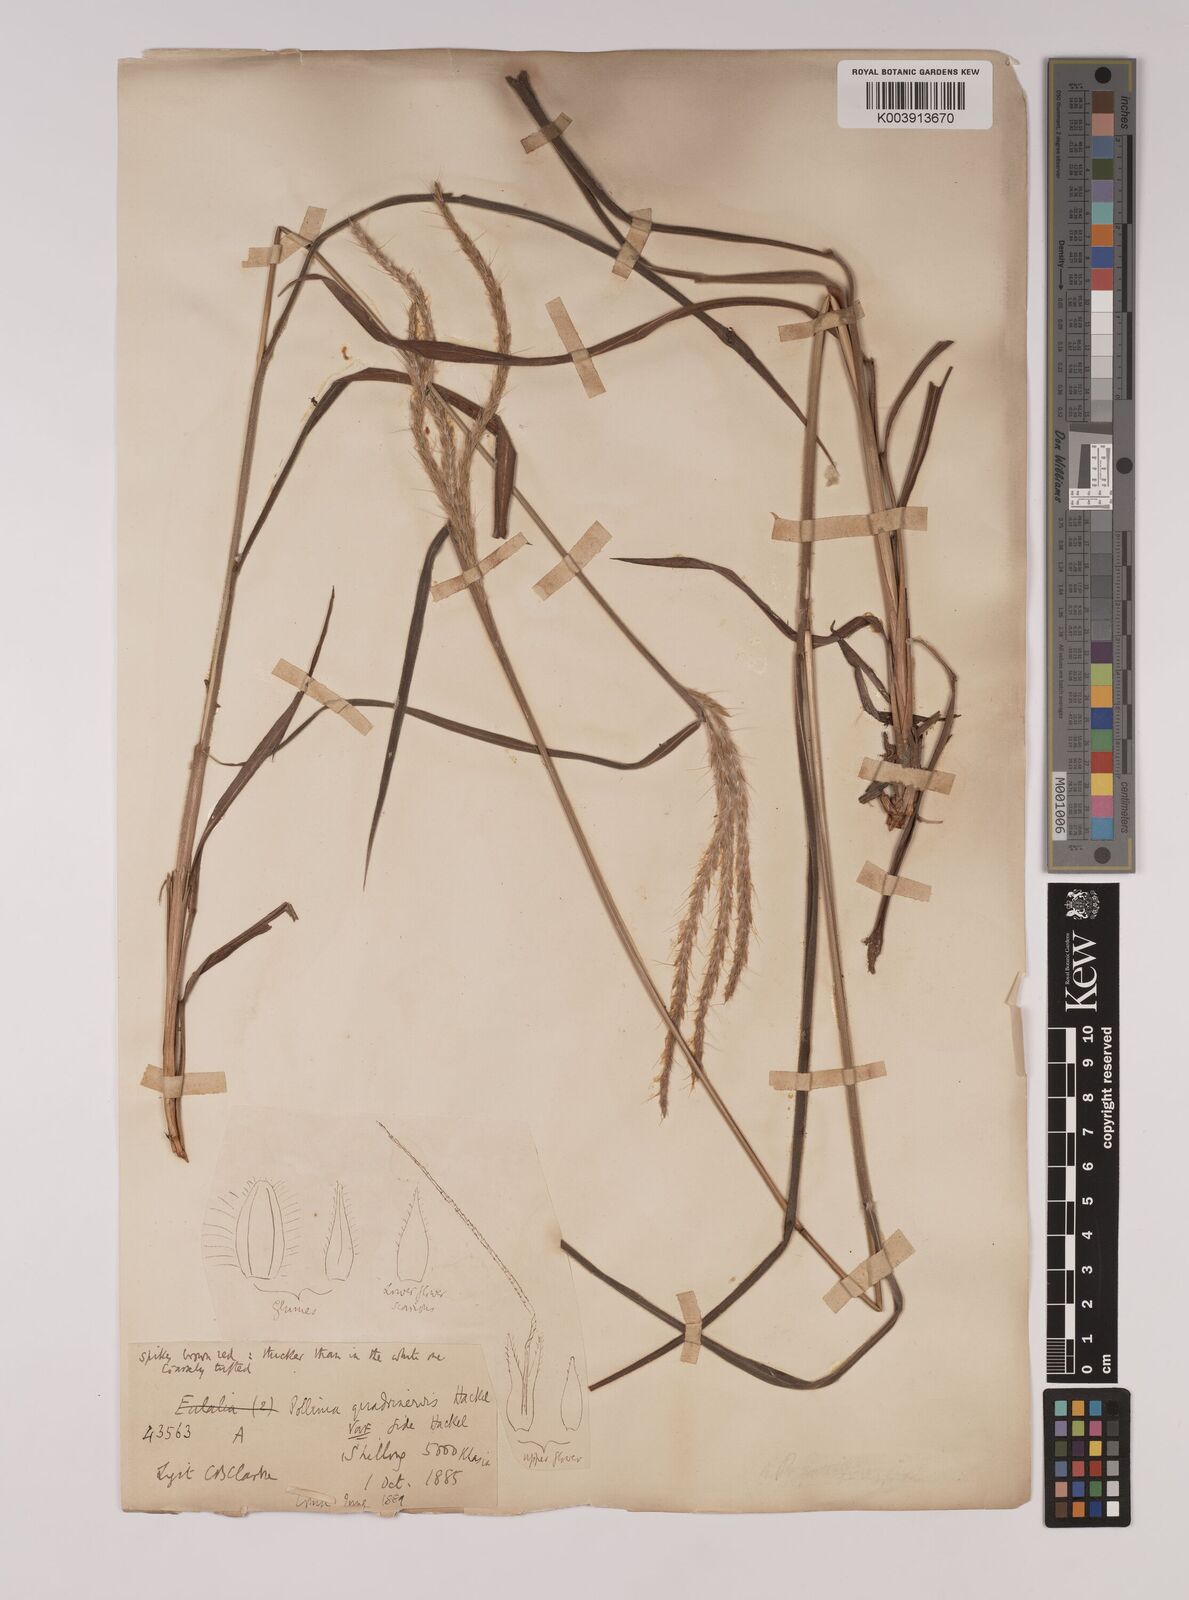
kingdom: Plantae
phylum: Tracheophyta
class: Liliopsida
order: Poales
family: Poaceae
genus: Pseudopogonatherum
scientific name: Pseudopogonatherum quadrinerve
